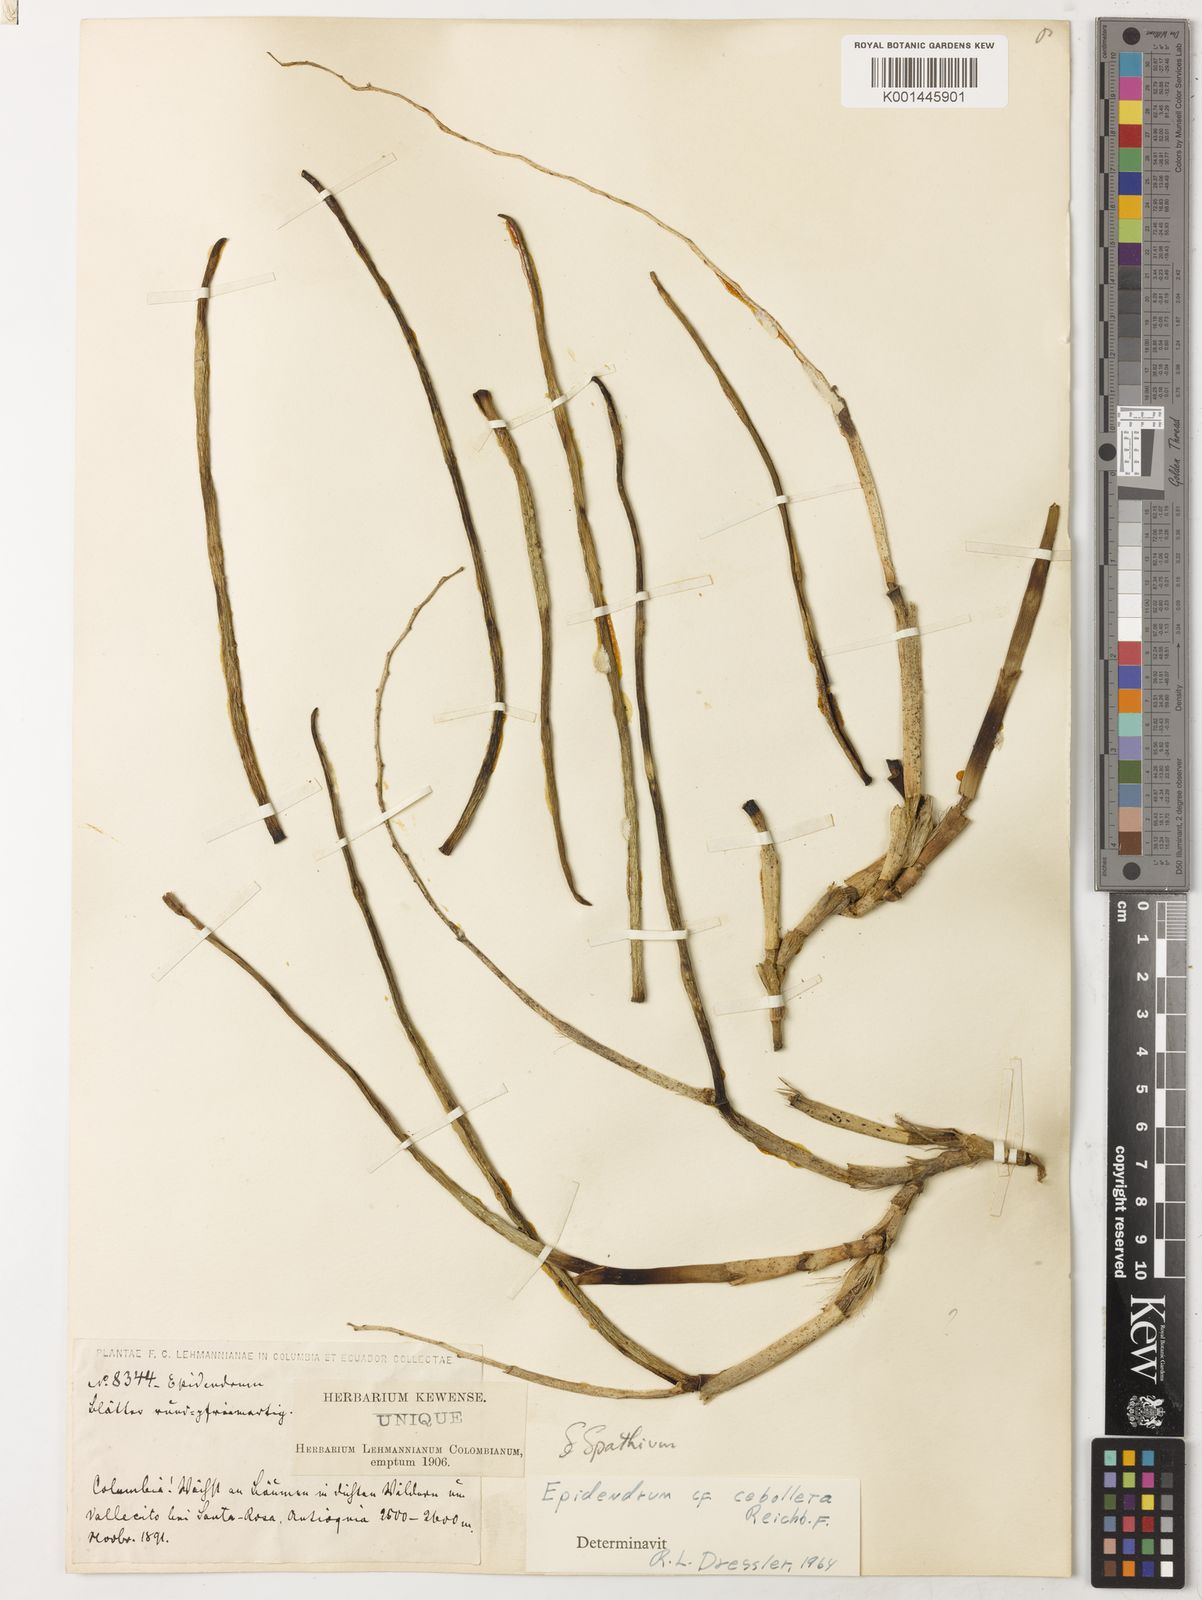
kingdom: Plantae
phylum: Tracheophyta
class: Liliopsida
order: Asparagales
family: Orchidaceae
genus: Trichocentrum
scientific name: Trichocentrum cebolleta
